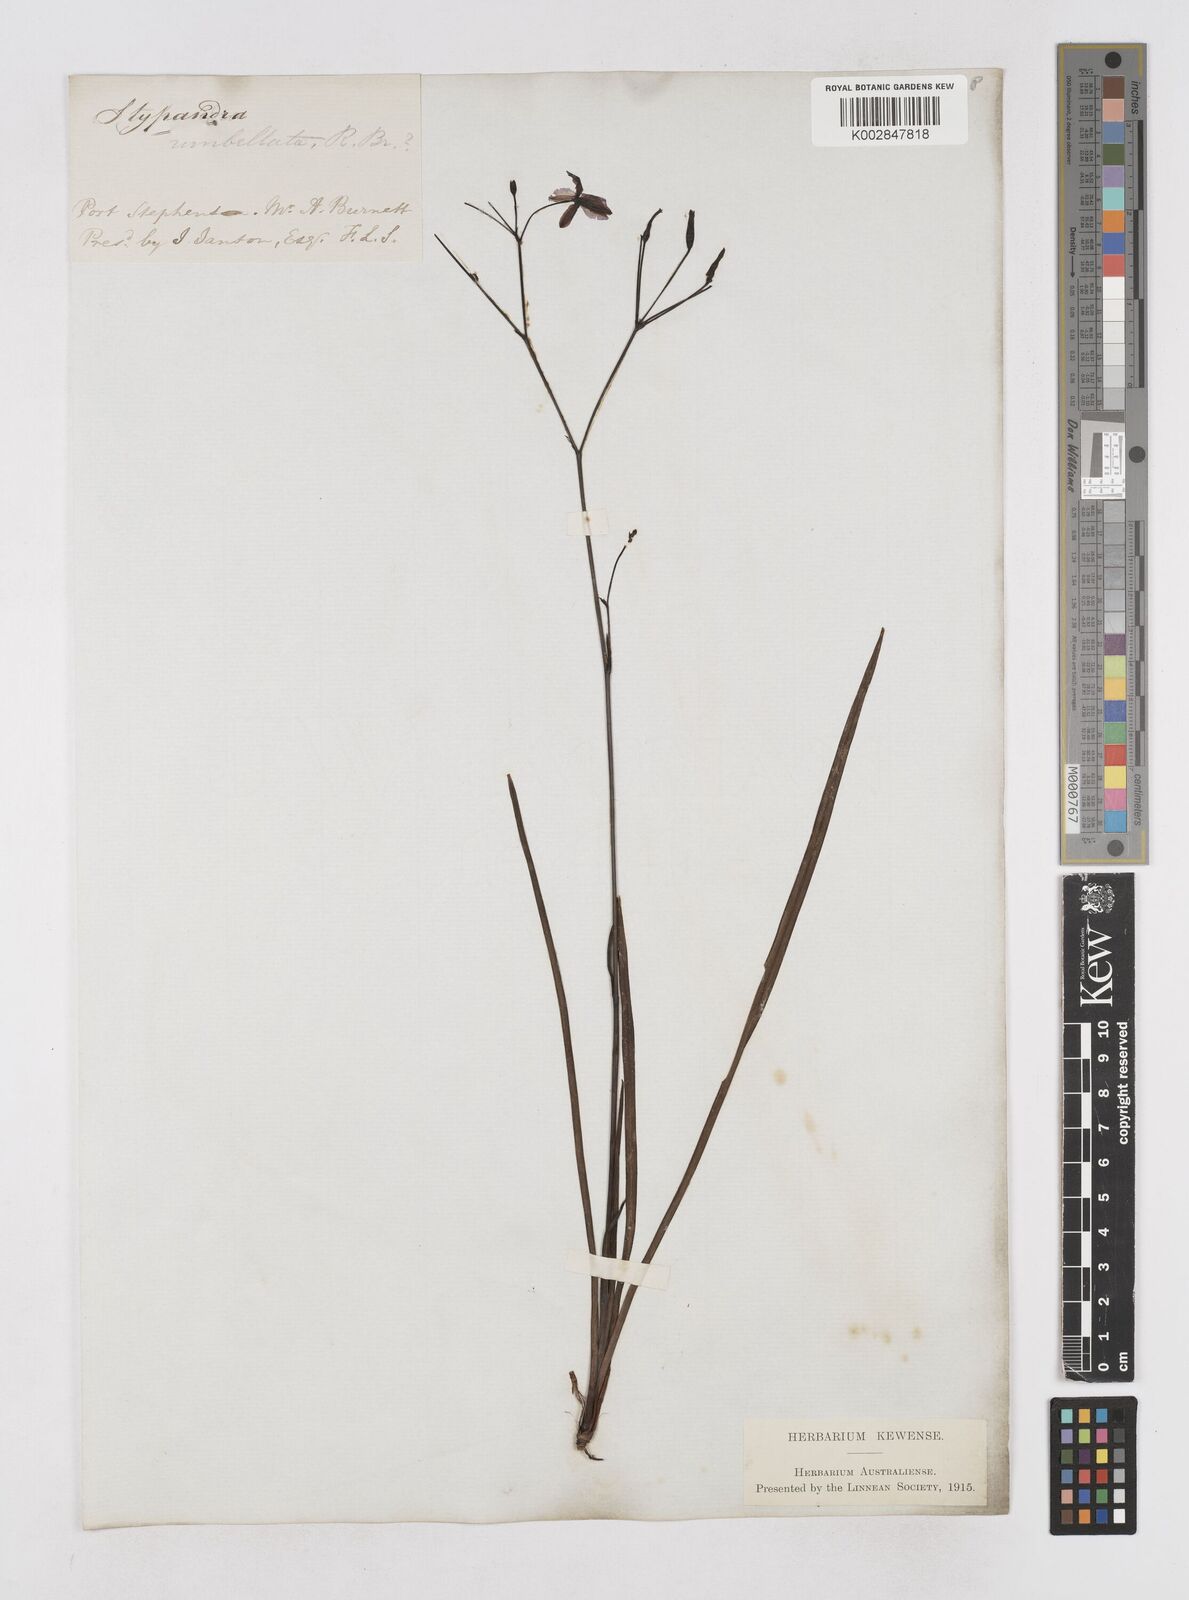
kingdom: Plantae
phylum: Tracheophyta
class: Liliopsida
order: Asparagales
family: Asphodelaceae
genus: Thelionema
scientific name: Thelionema umbellatum
